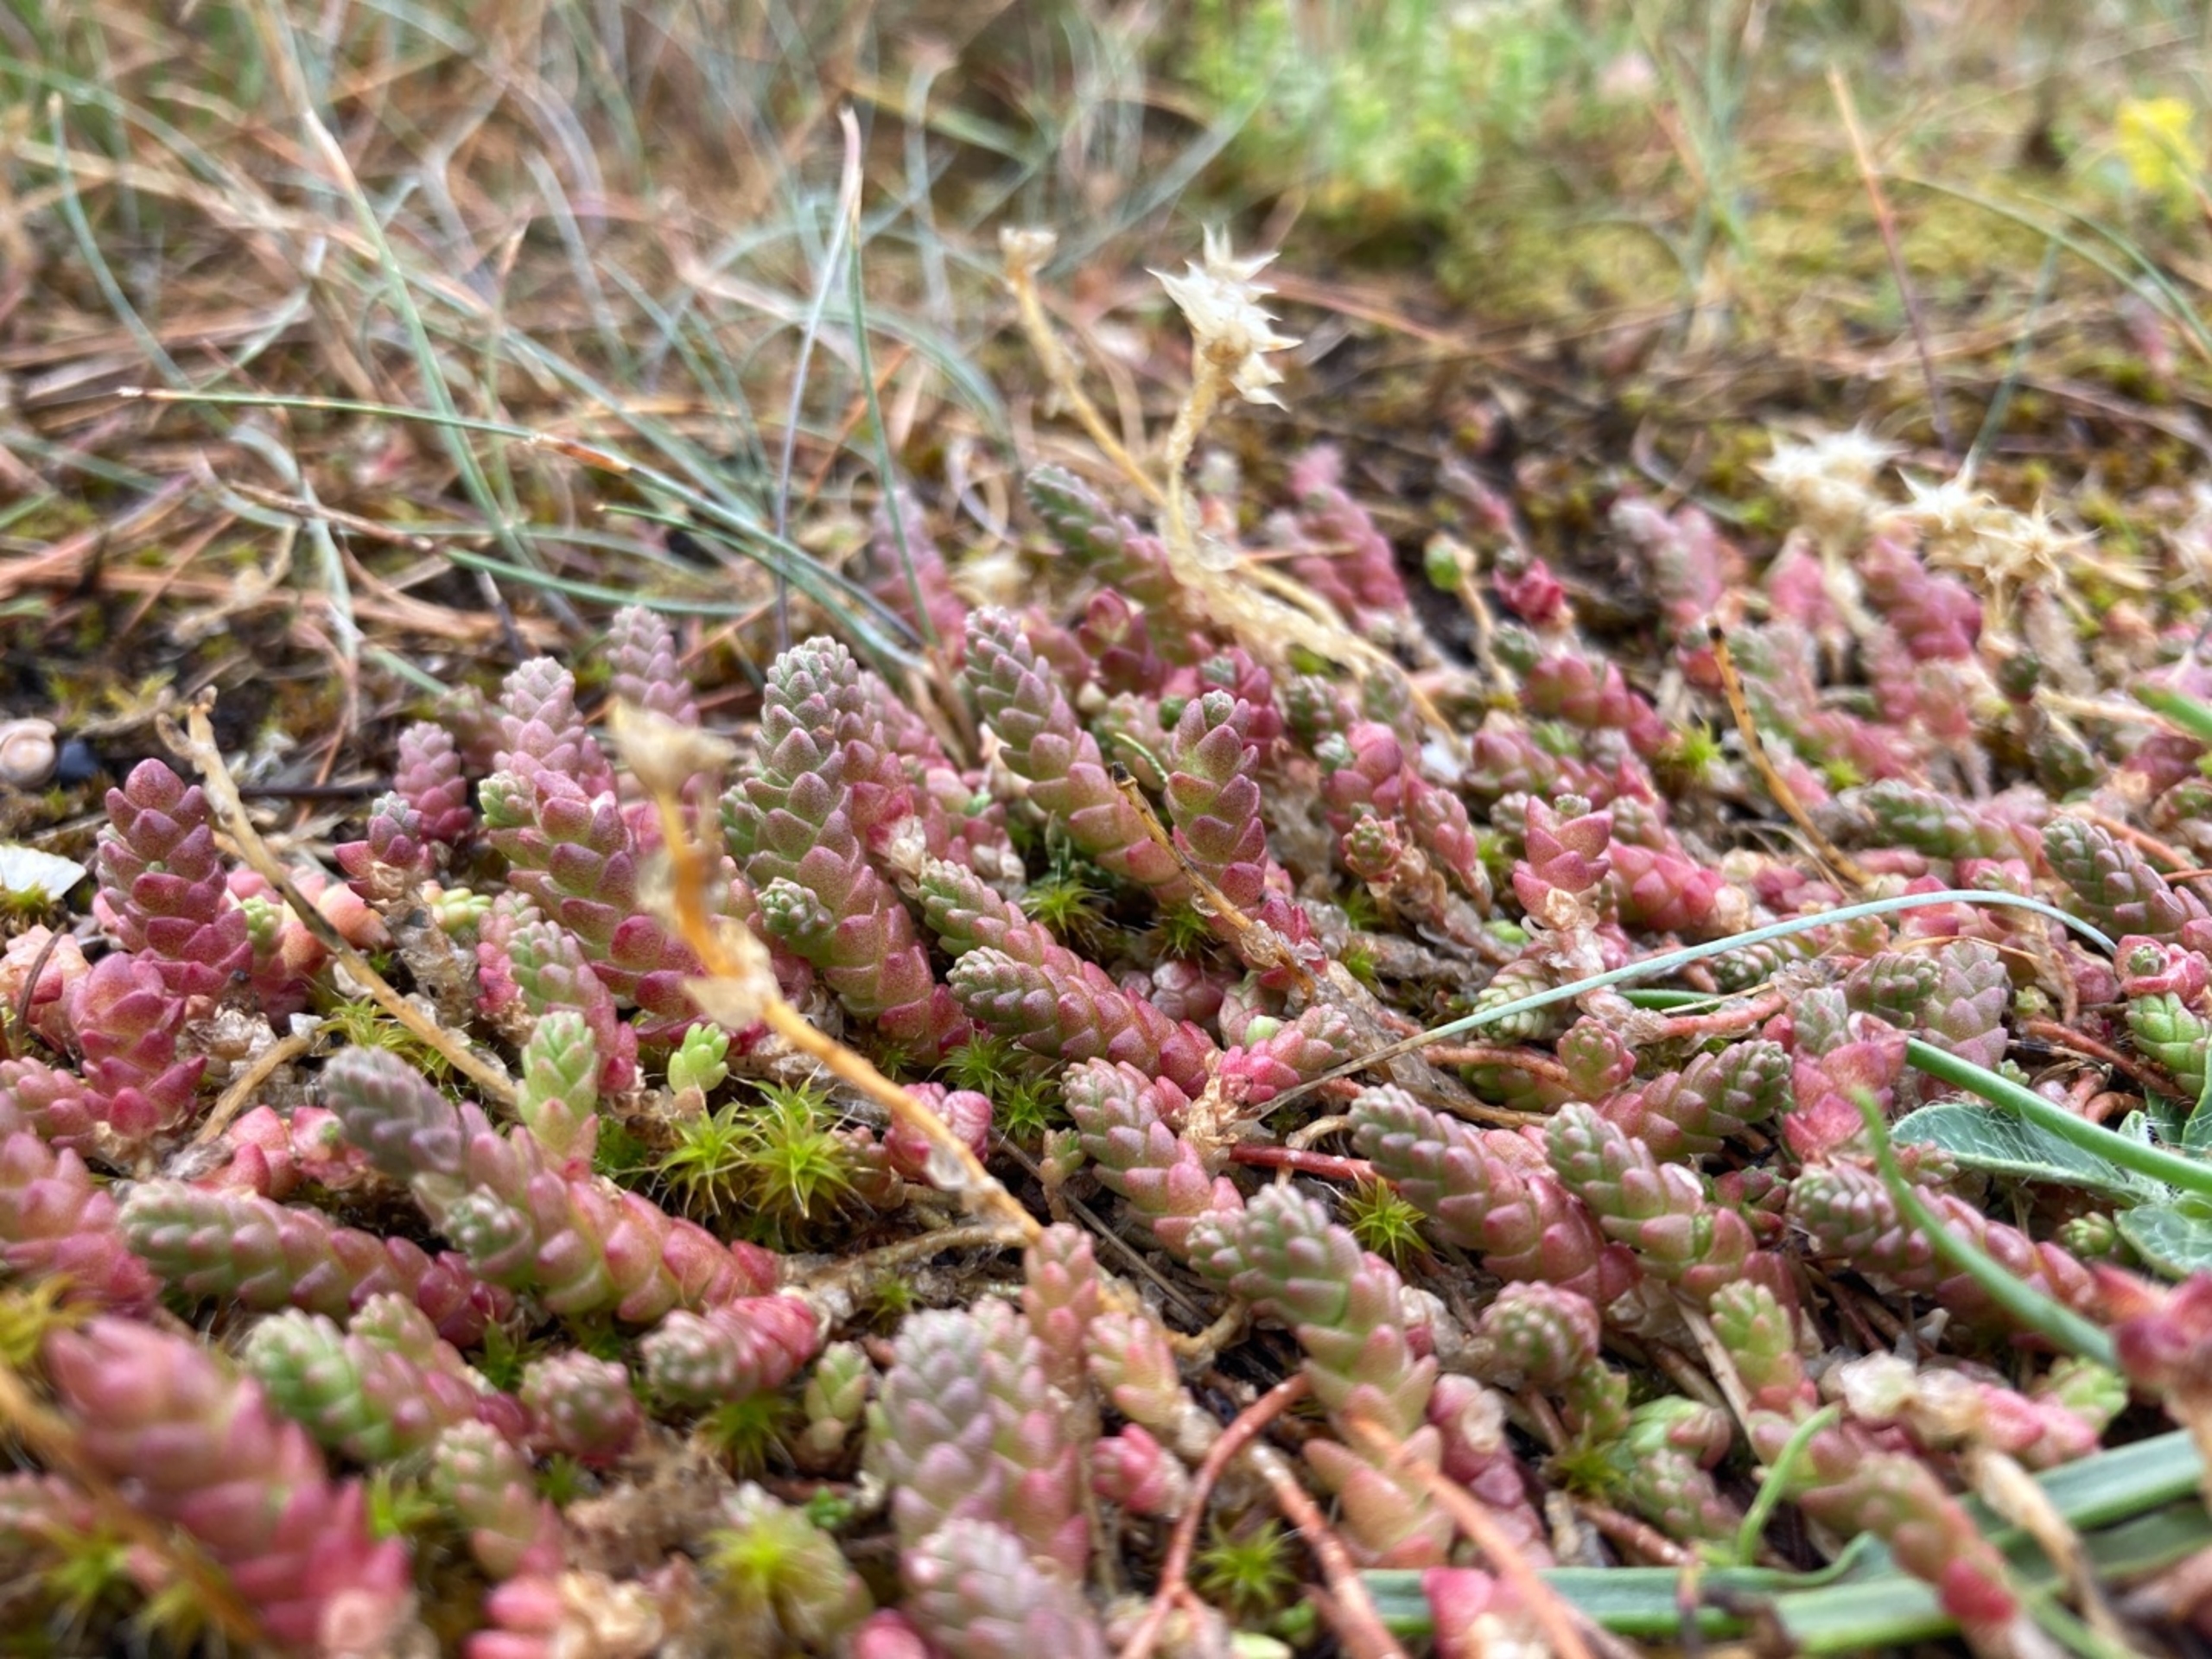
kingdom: Plantae
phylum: Tracheophyta
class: Magnoliopsida
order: Saxifragales
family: Crassulaceae
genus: Sedum
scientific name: Sedum acre
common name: Bidende stenurt
